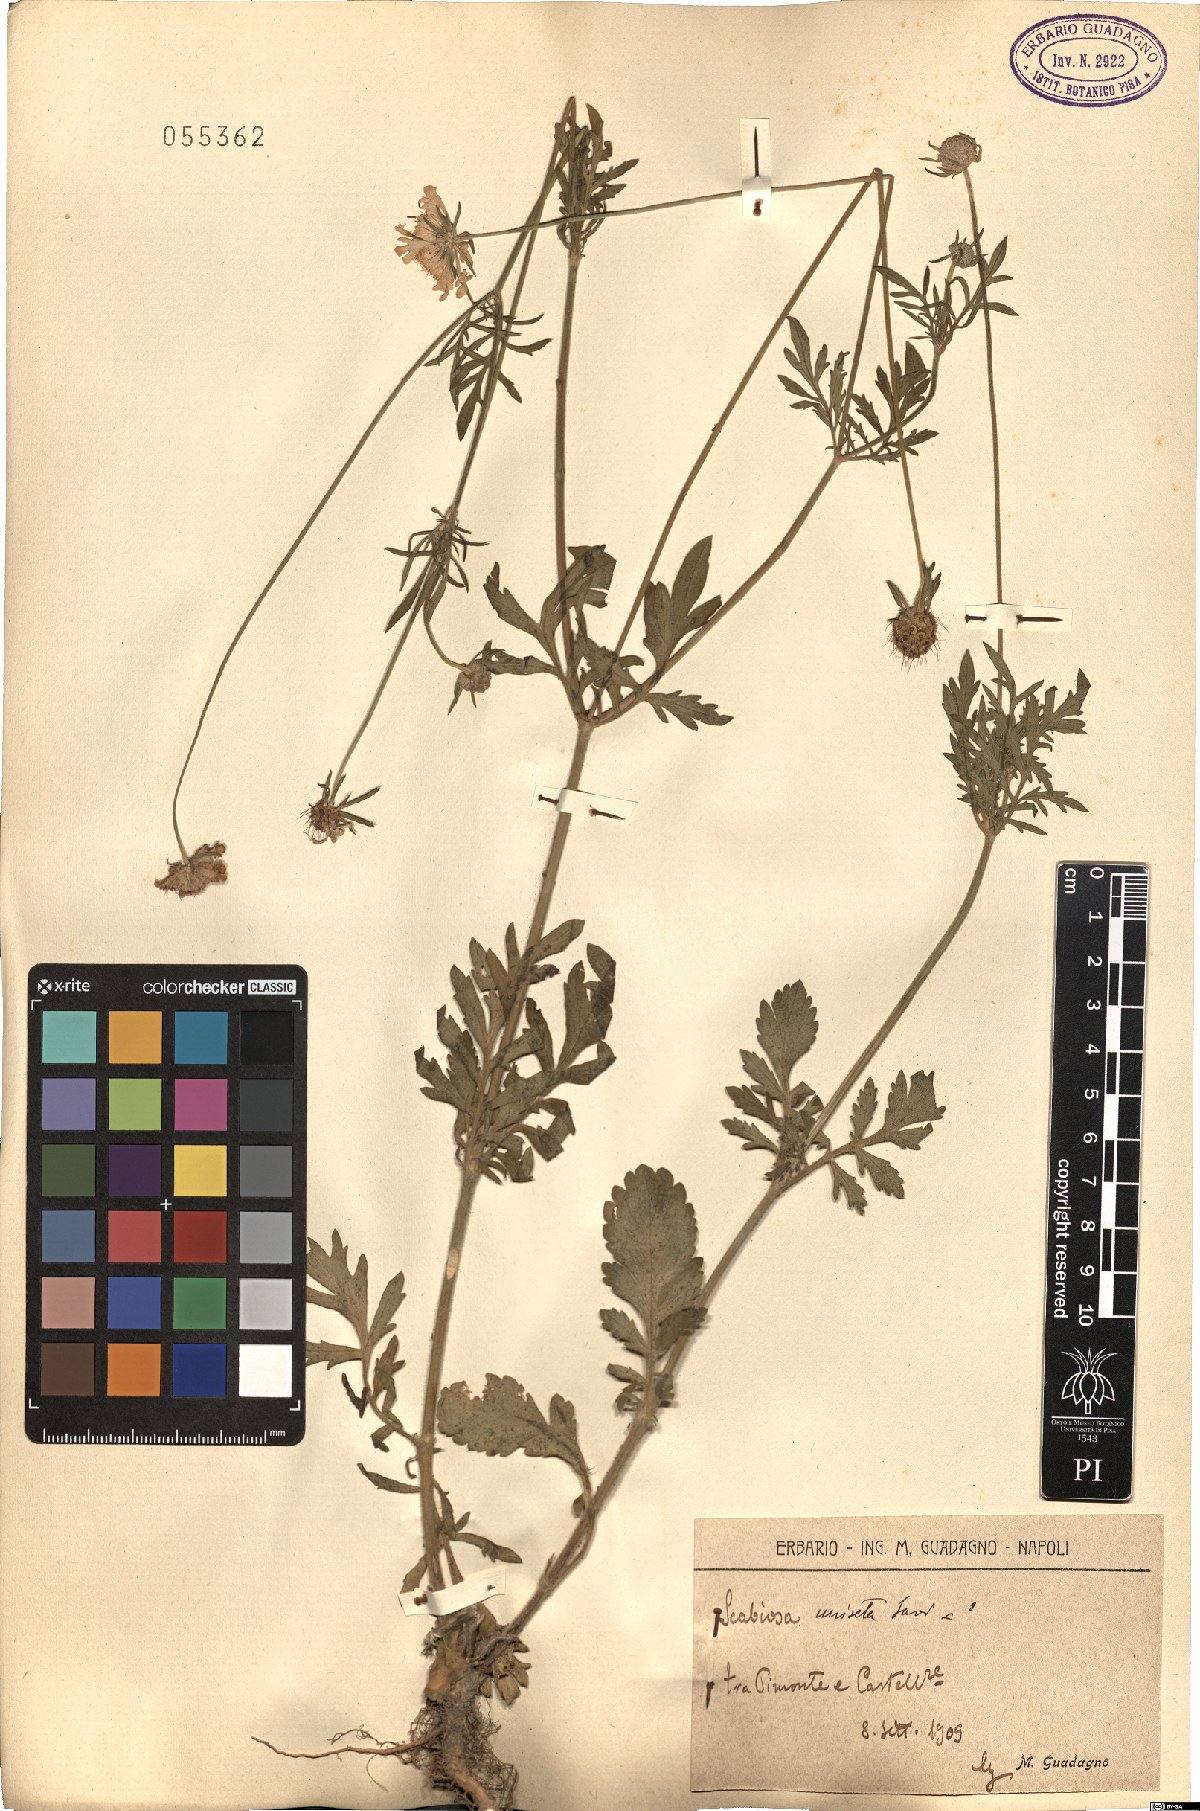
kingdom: Plantae
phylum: Tracheophyta
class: Magnoliopsida
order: Dipsacales
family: Caprifoliaceae
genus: Scabiosa
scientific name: Scabiosa columbaria
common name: Small scabious
